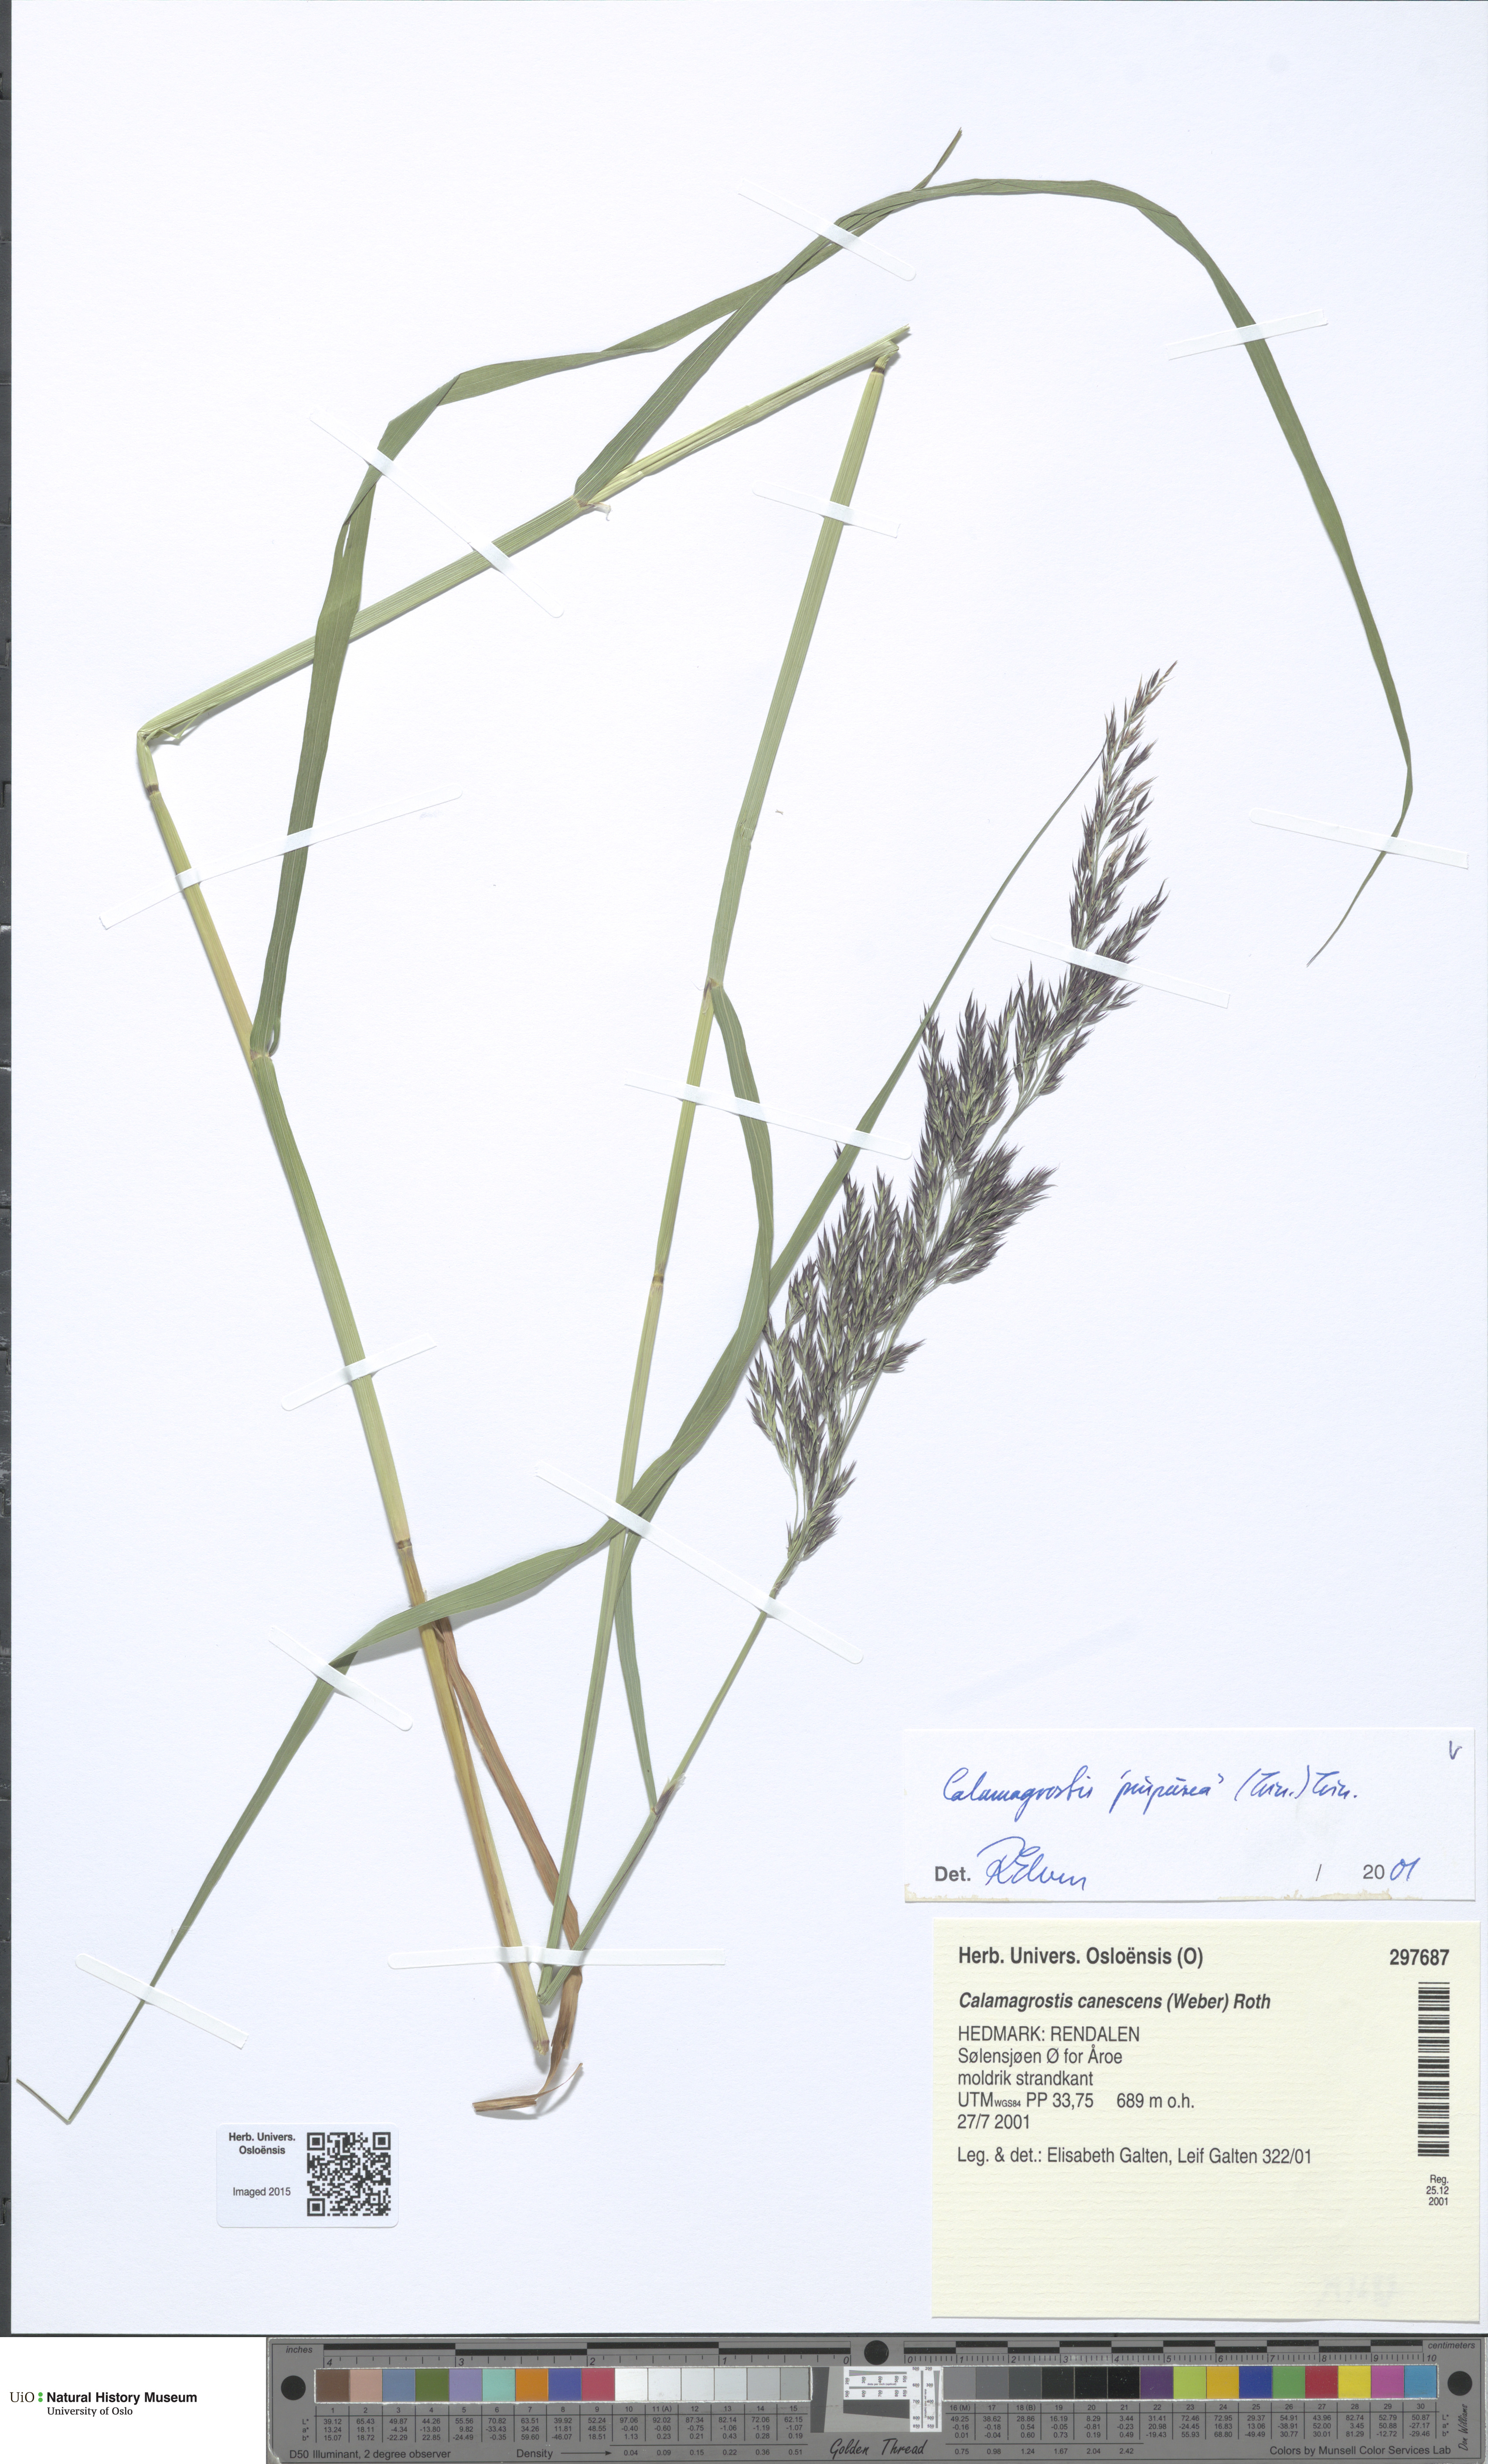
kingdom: Plantae
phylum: Tracheophyta
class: Liliopsida
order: Poales
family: Poaceae
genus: Calamagrostis
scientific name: Calamagrostis purpurea
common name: Scandinavian small-reed
